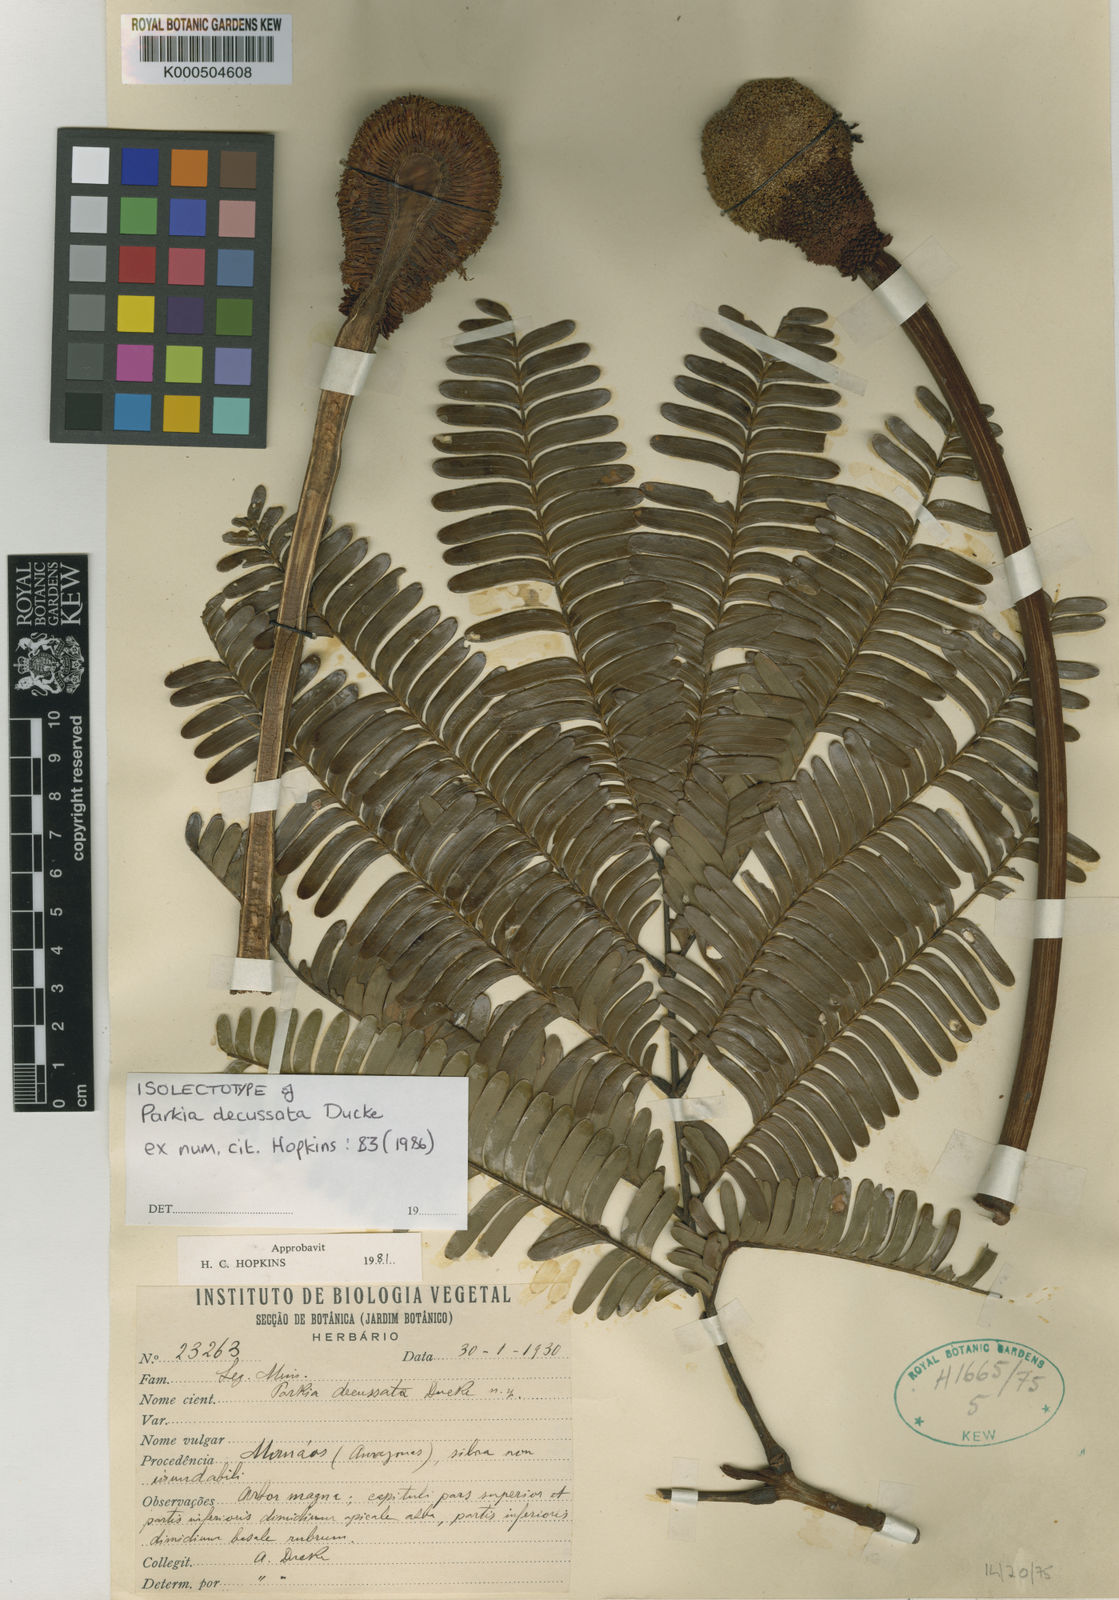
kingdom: Plantae
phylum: Tracheophyta
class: Magnoliopsida
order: Fabales
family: Fabaceae
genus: Parkia
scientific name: Parkia decussata
